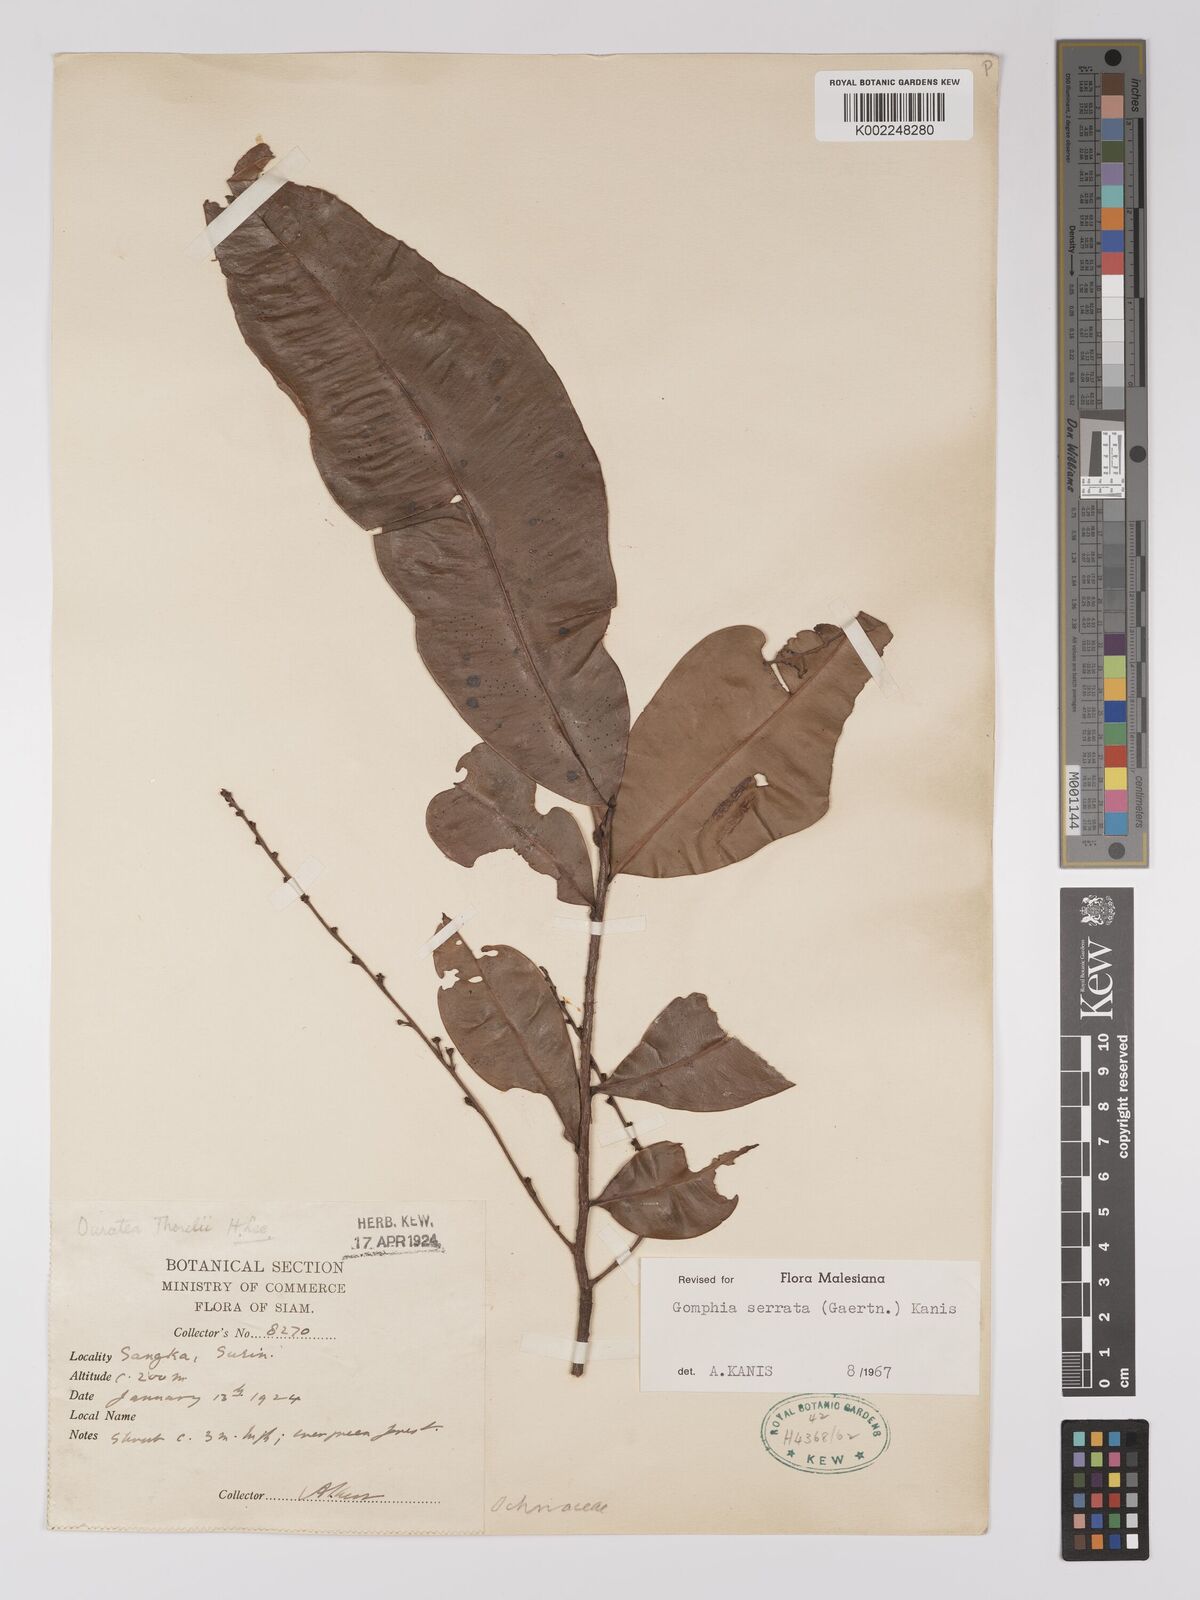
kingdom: Plantae
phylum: Tracheophyta
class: Magnoliopsida
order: Malpighiales
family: Ochnaceae
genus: Gomphia
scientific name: Gomphia serrata
